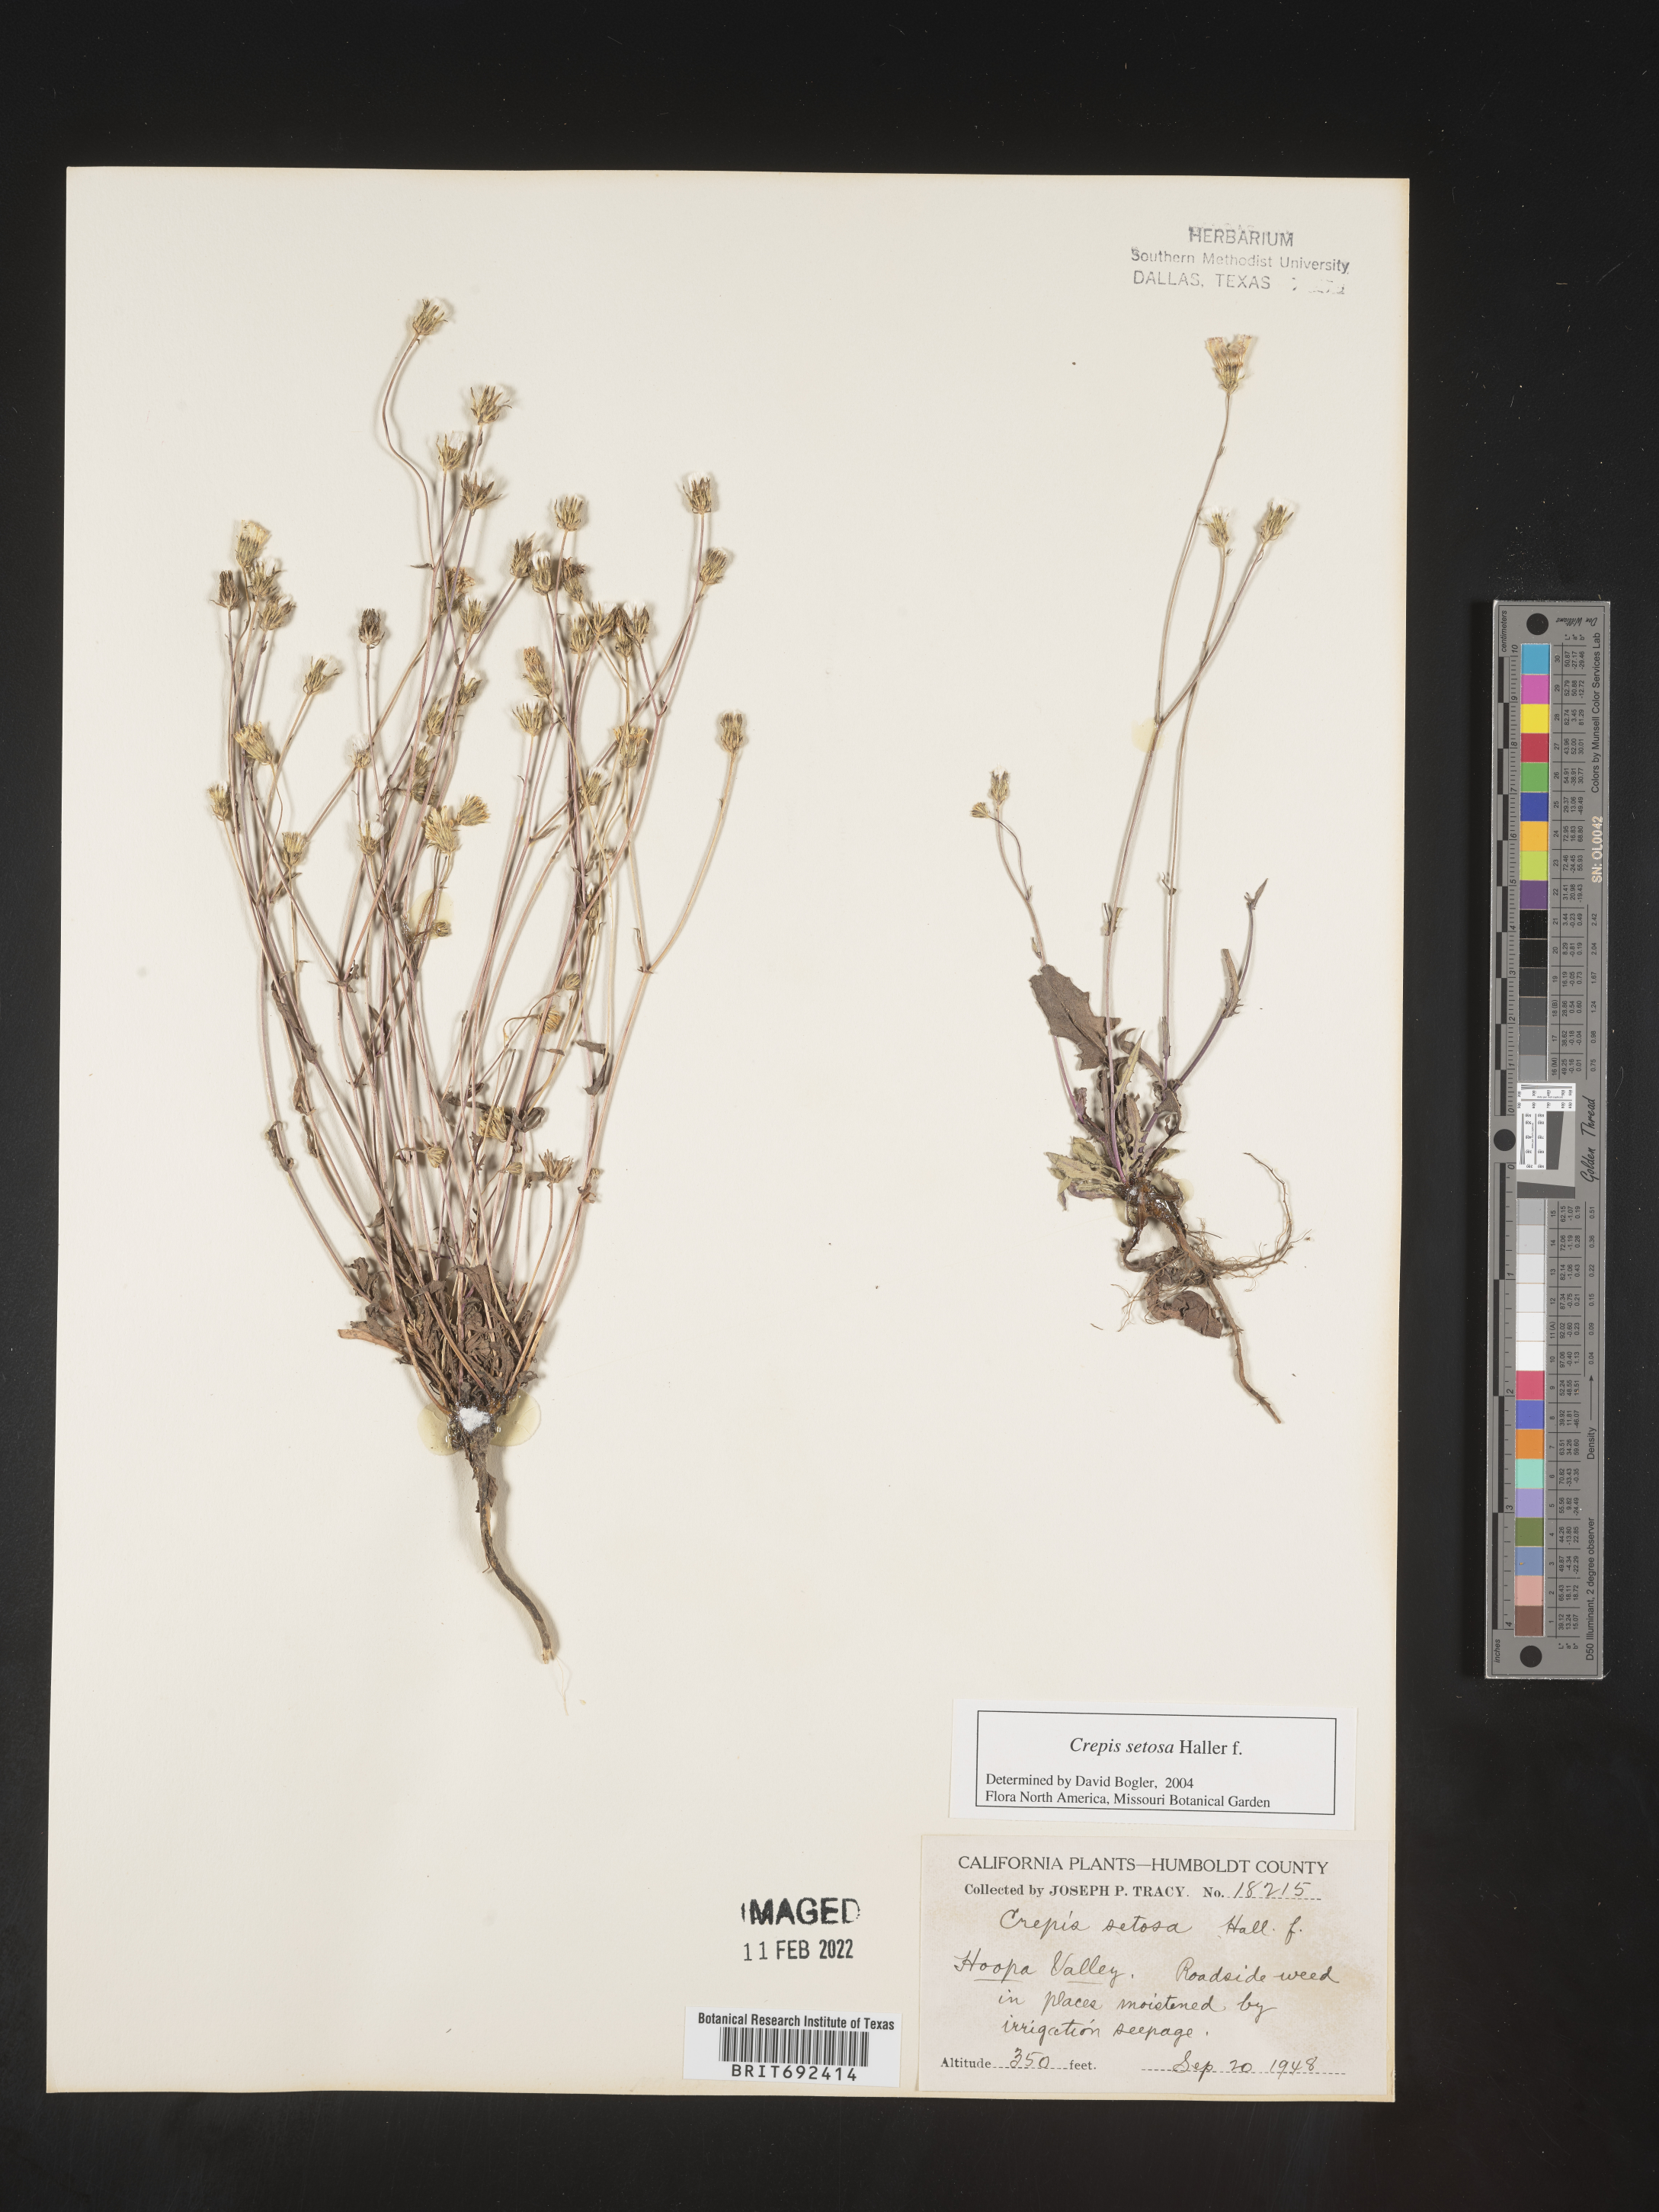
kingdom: Plantae
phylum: Tracheophyta
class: Magnoliopsida
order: Asterales
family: Asteraceae
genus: Crepis
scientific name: Crepis
